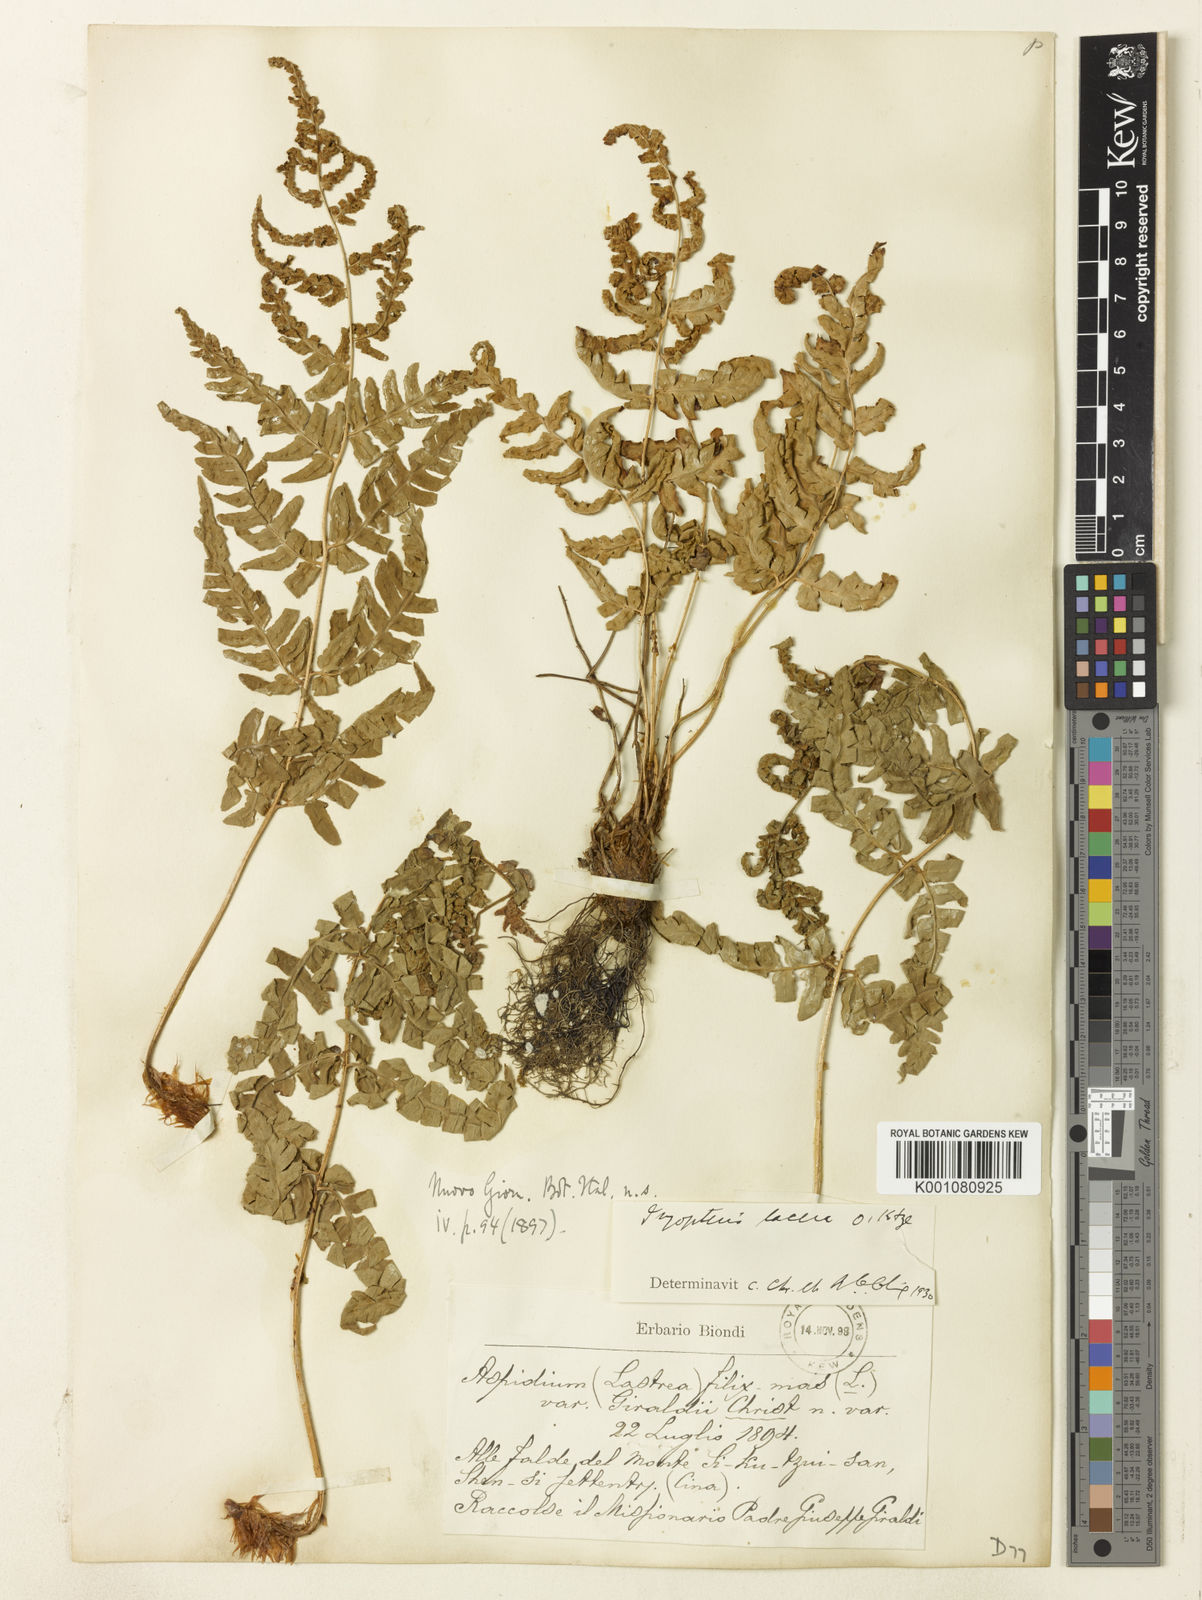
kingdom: Plantae
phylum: Tracheophyta
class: Polypodiopsida
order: Polypodiales
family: Dryopteridaceae
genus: Dryopteris
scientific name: Dryopteris lacera
